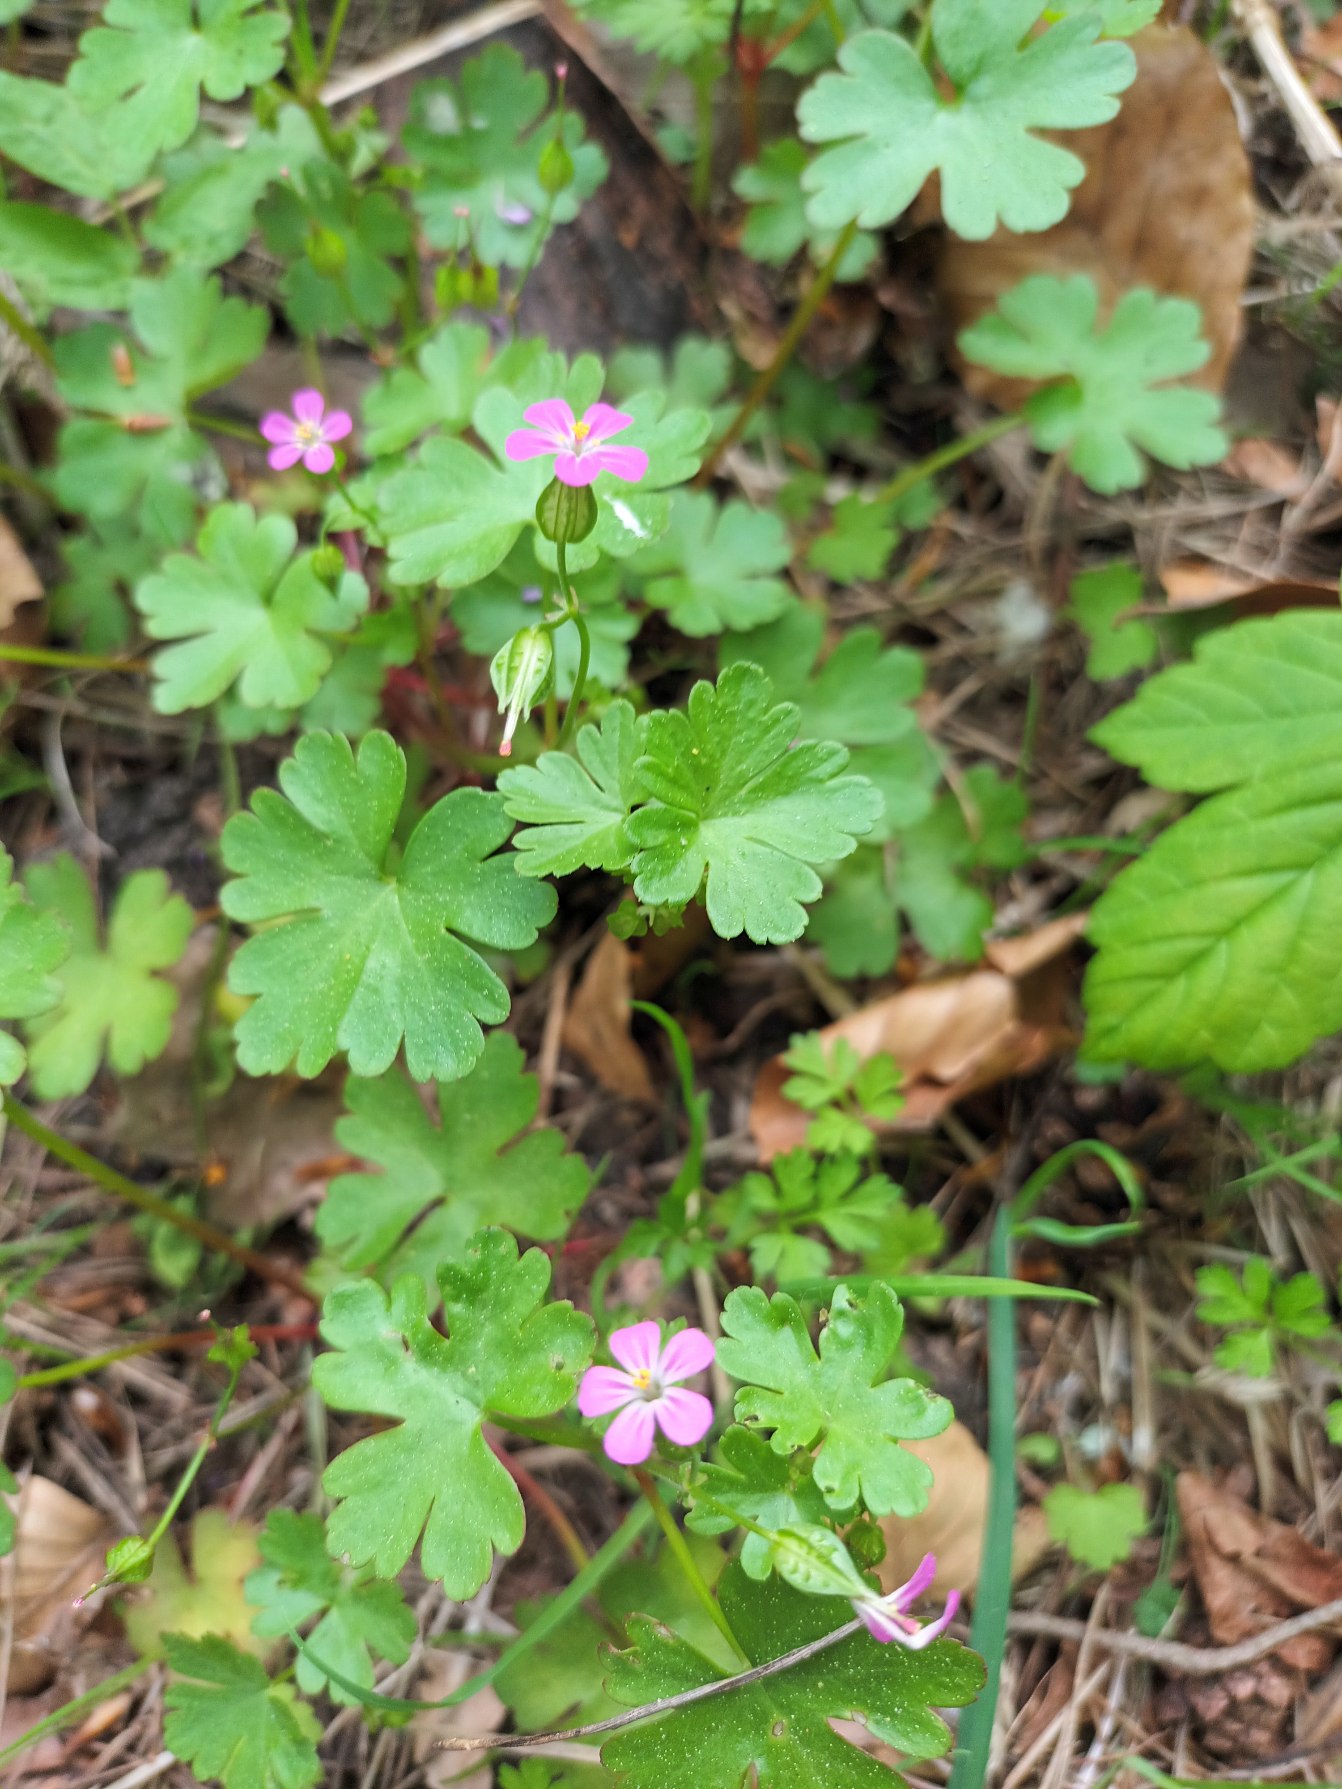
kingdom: Plantae
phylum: Tracheophyta
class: Magnoliopsida
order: Geraniales
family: Geraniaceae
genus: Geranium
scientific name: Geranium lucidum
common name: Skinnende storkenæb
